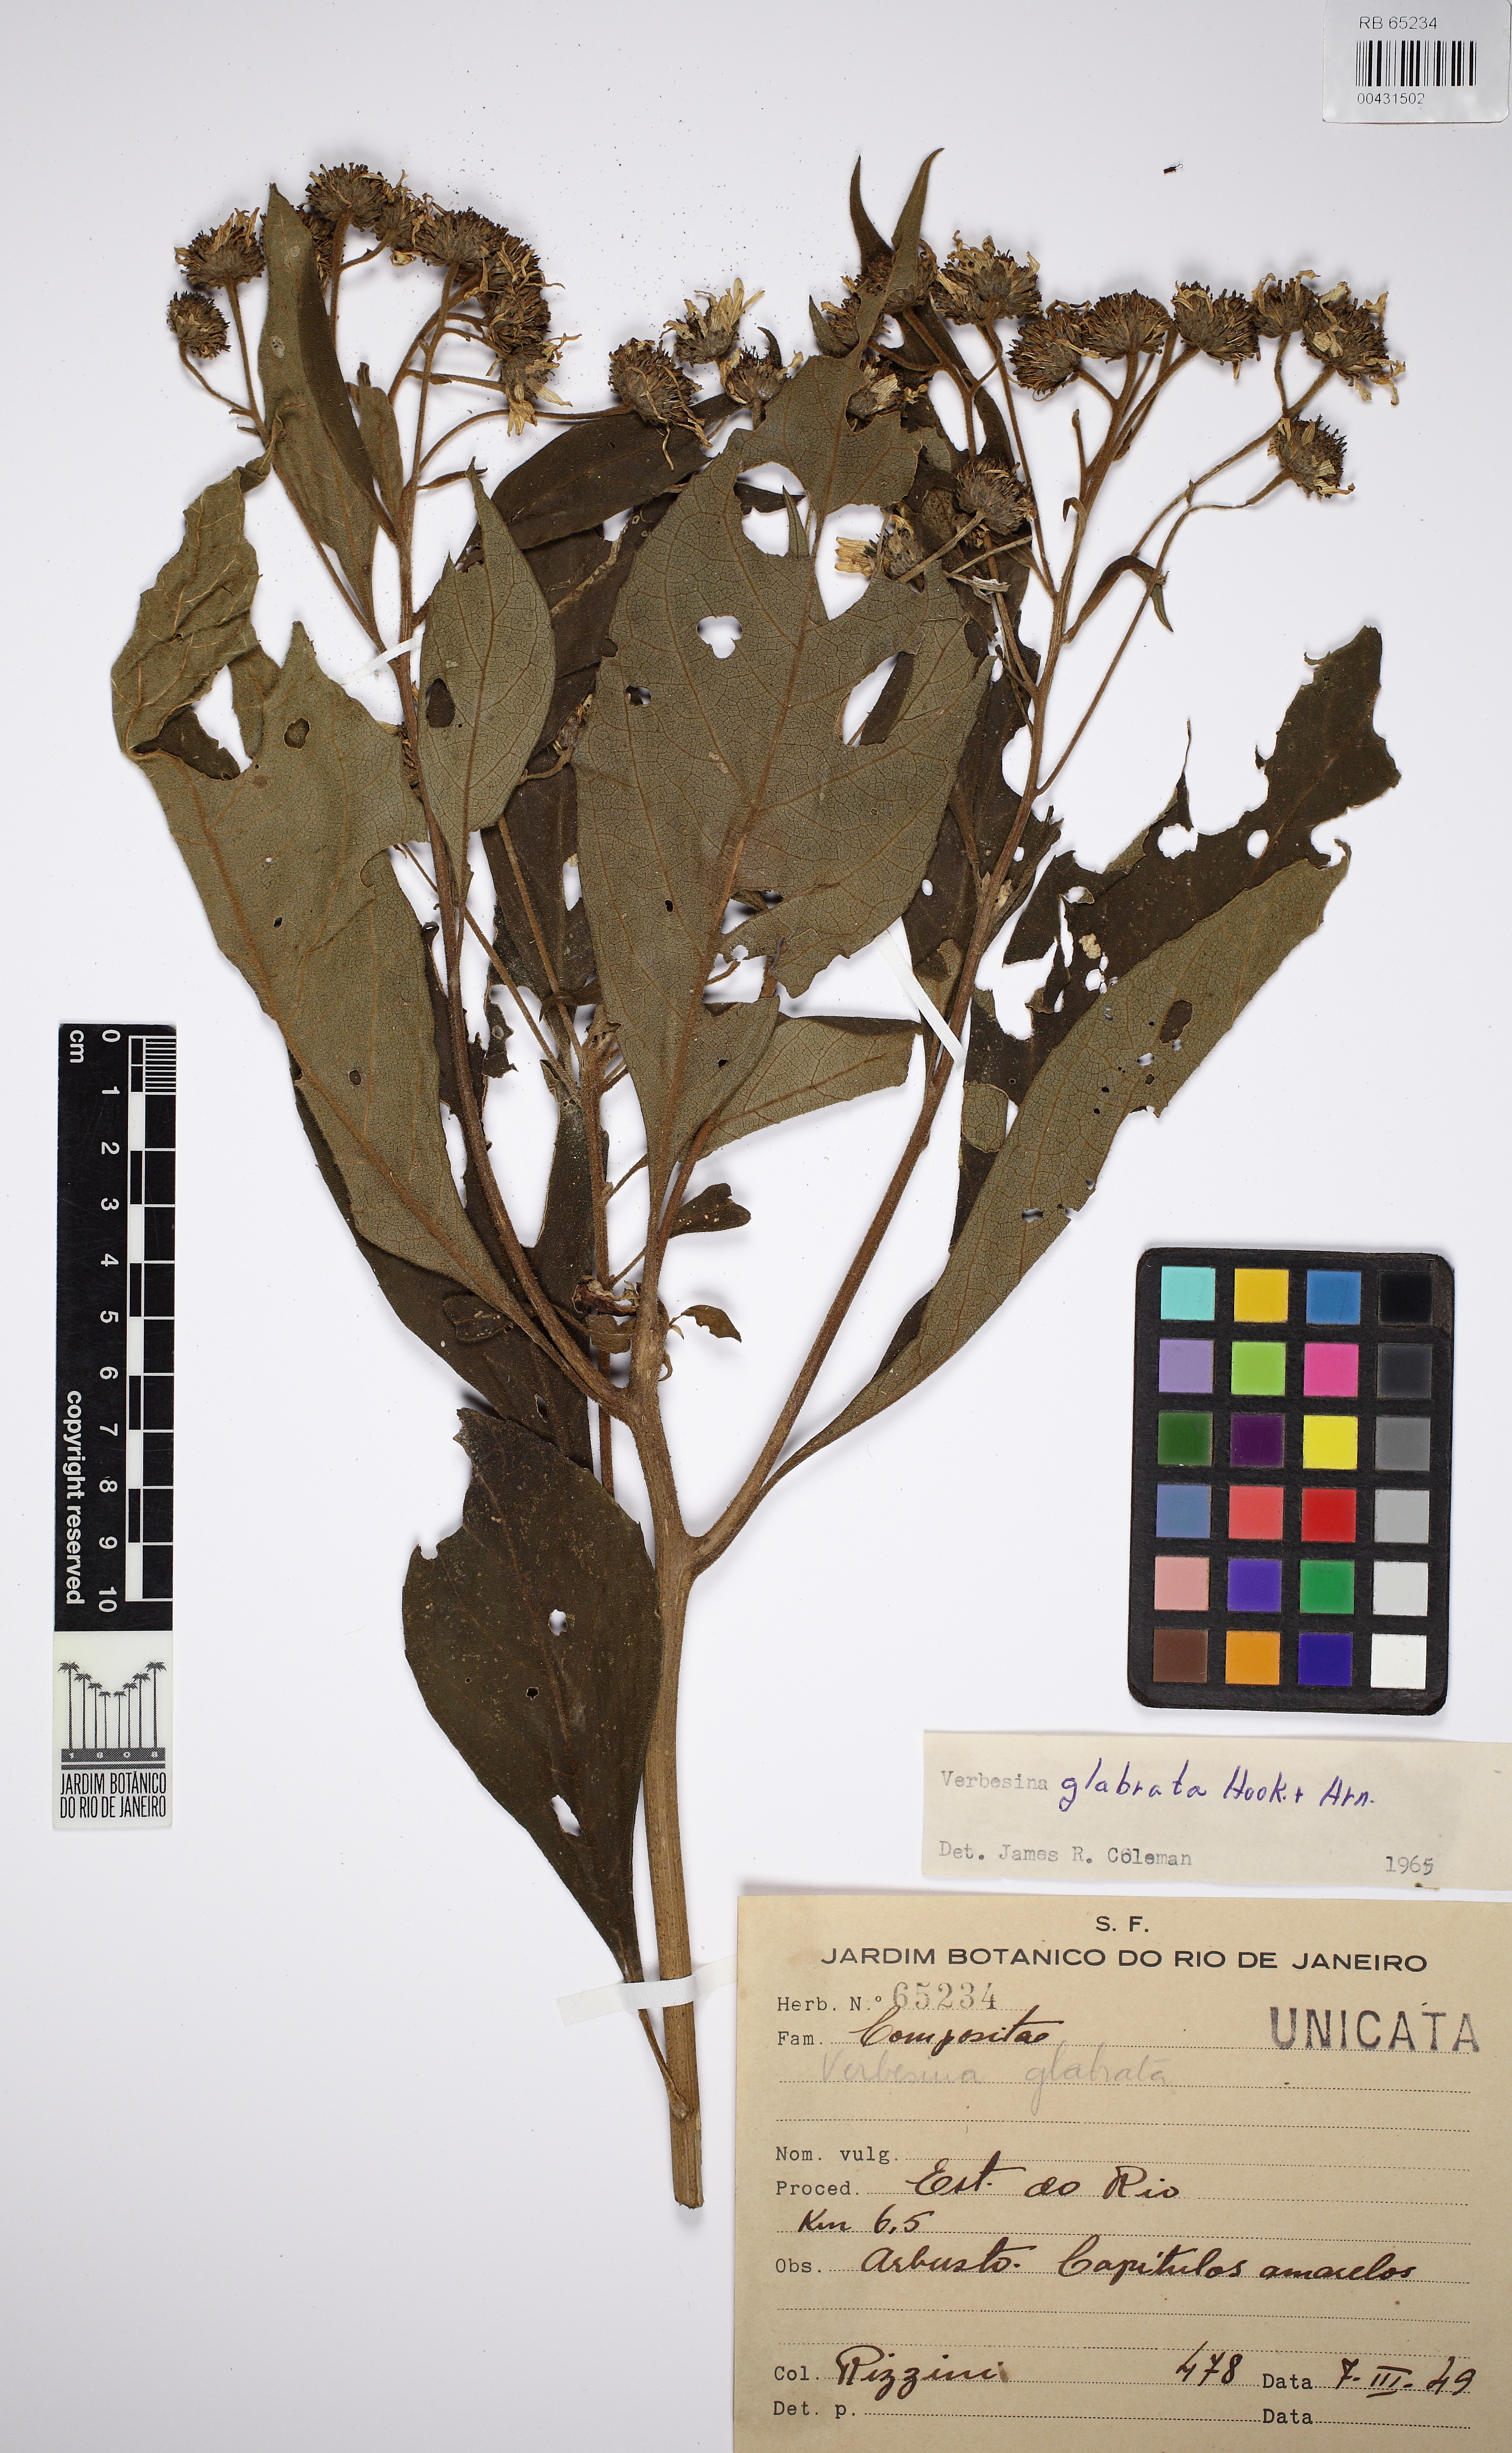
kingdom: Plantae
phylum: Tracheophyta
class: Magnoliopsida
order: Asterales
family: Asteraceae
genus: Verbesina
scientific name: Verbesina glabrata
